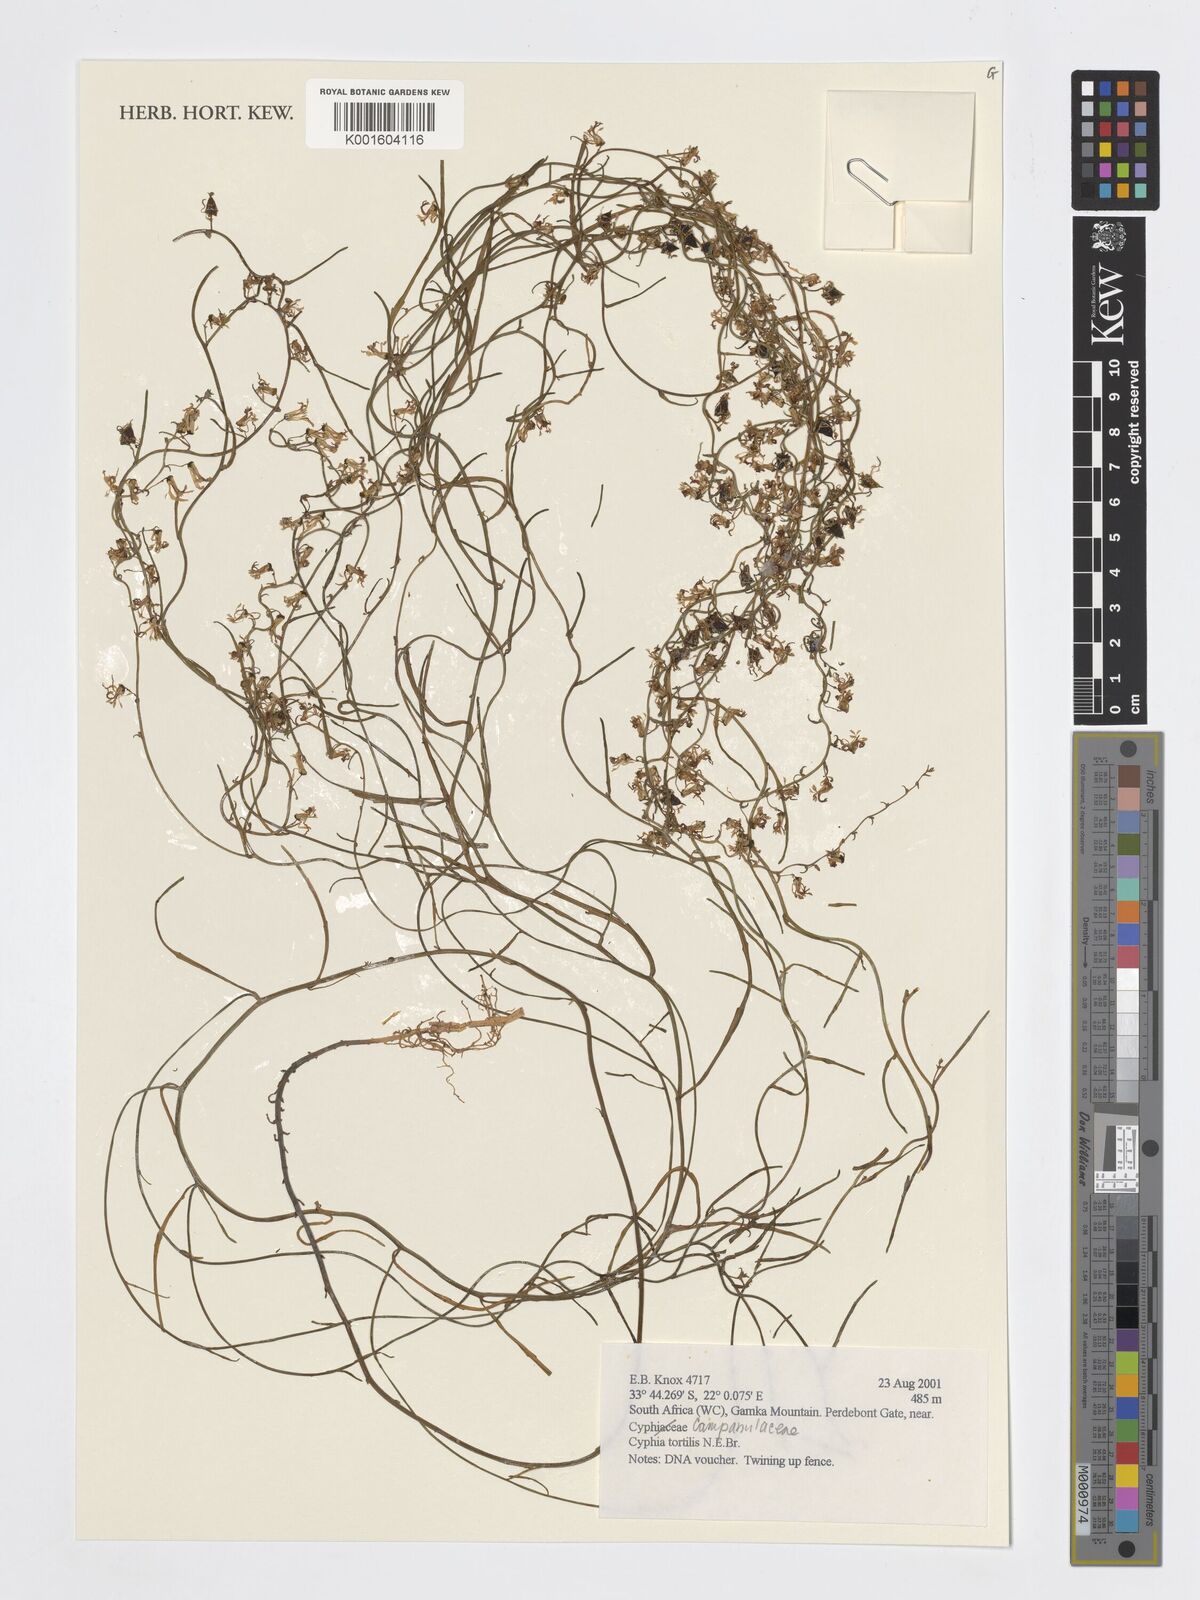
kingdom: Plantae
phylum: Tracheophyta
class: Magnoliopsida
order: Asterales
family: Campanulaceae
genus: Cyphia
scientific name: Cyphia sylvatica
